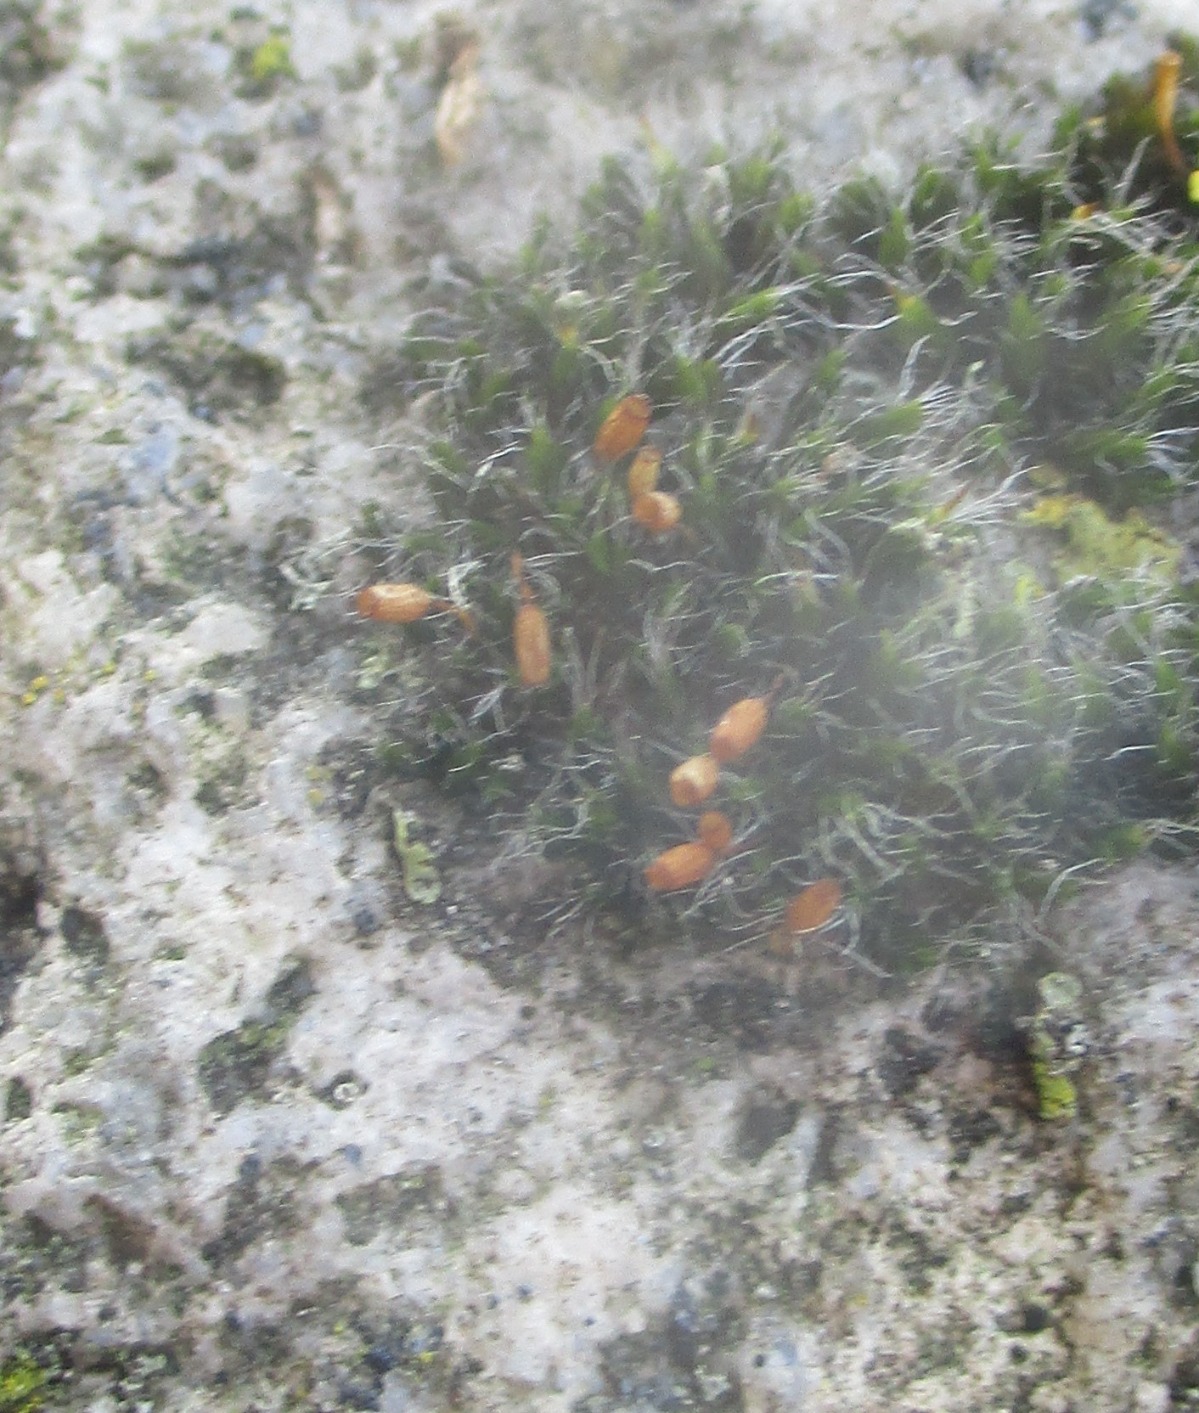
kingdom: Plantae
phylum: Bryophyta
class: Bryopsida
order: Grimmiales
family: Grimmiaceae
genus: Grimmia
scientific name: Grimmia pulvinata
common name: Pude-gråmos
